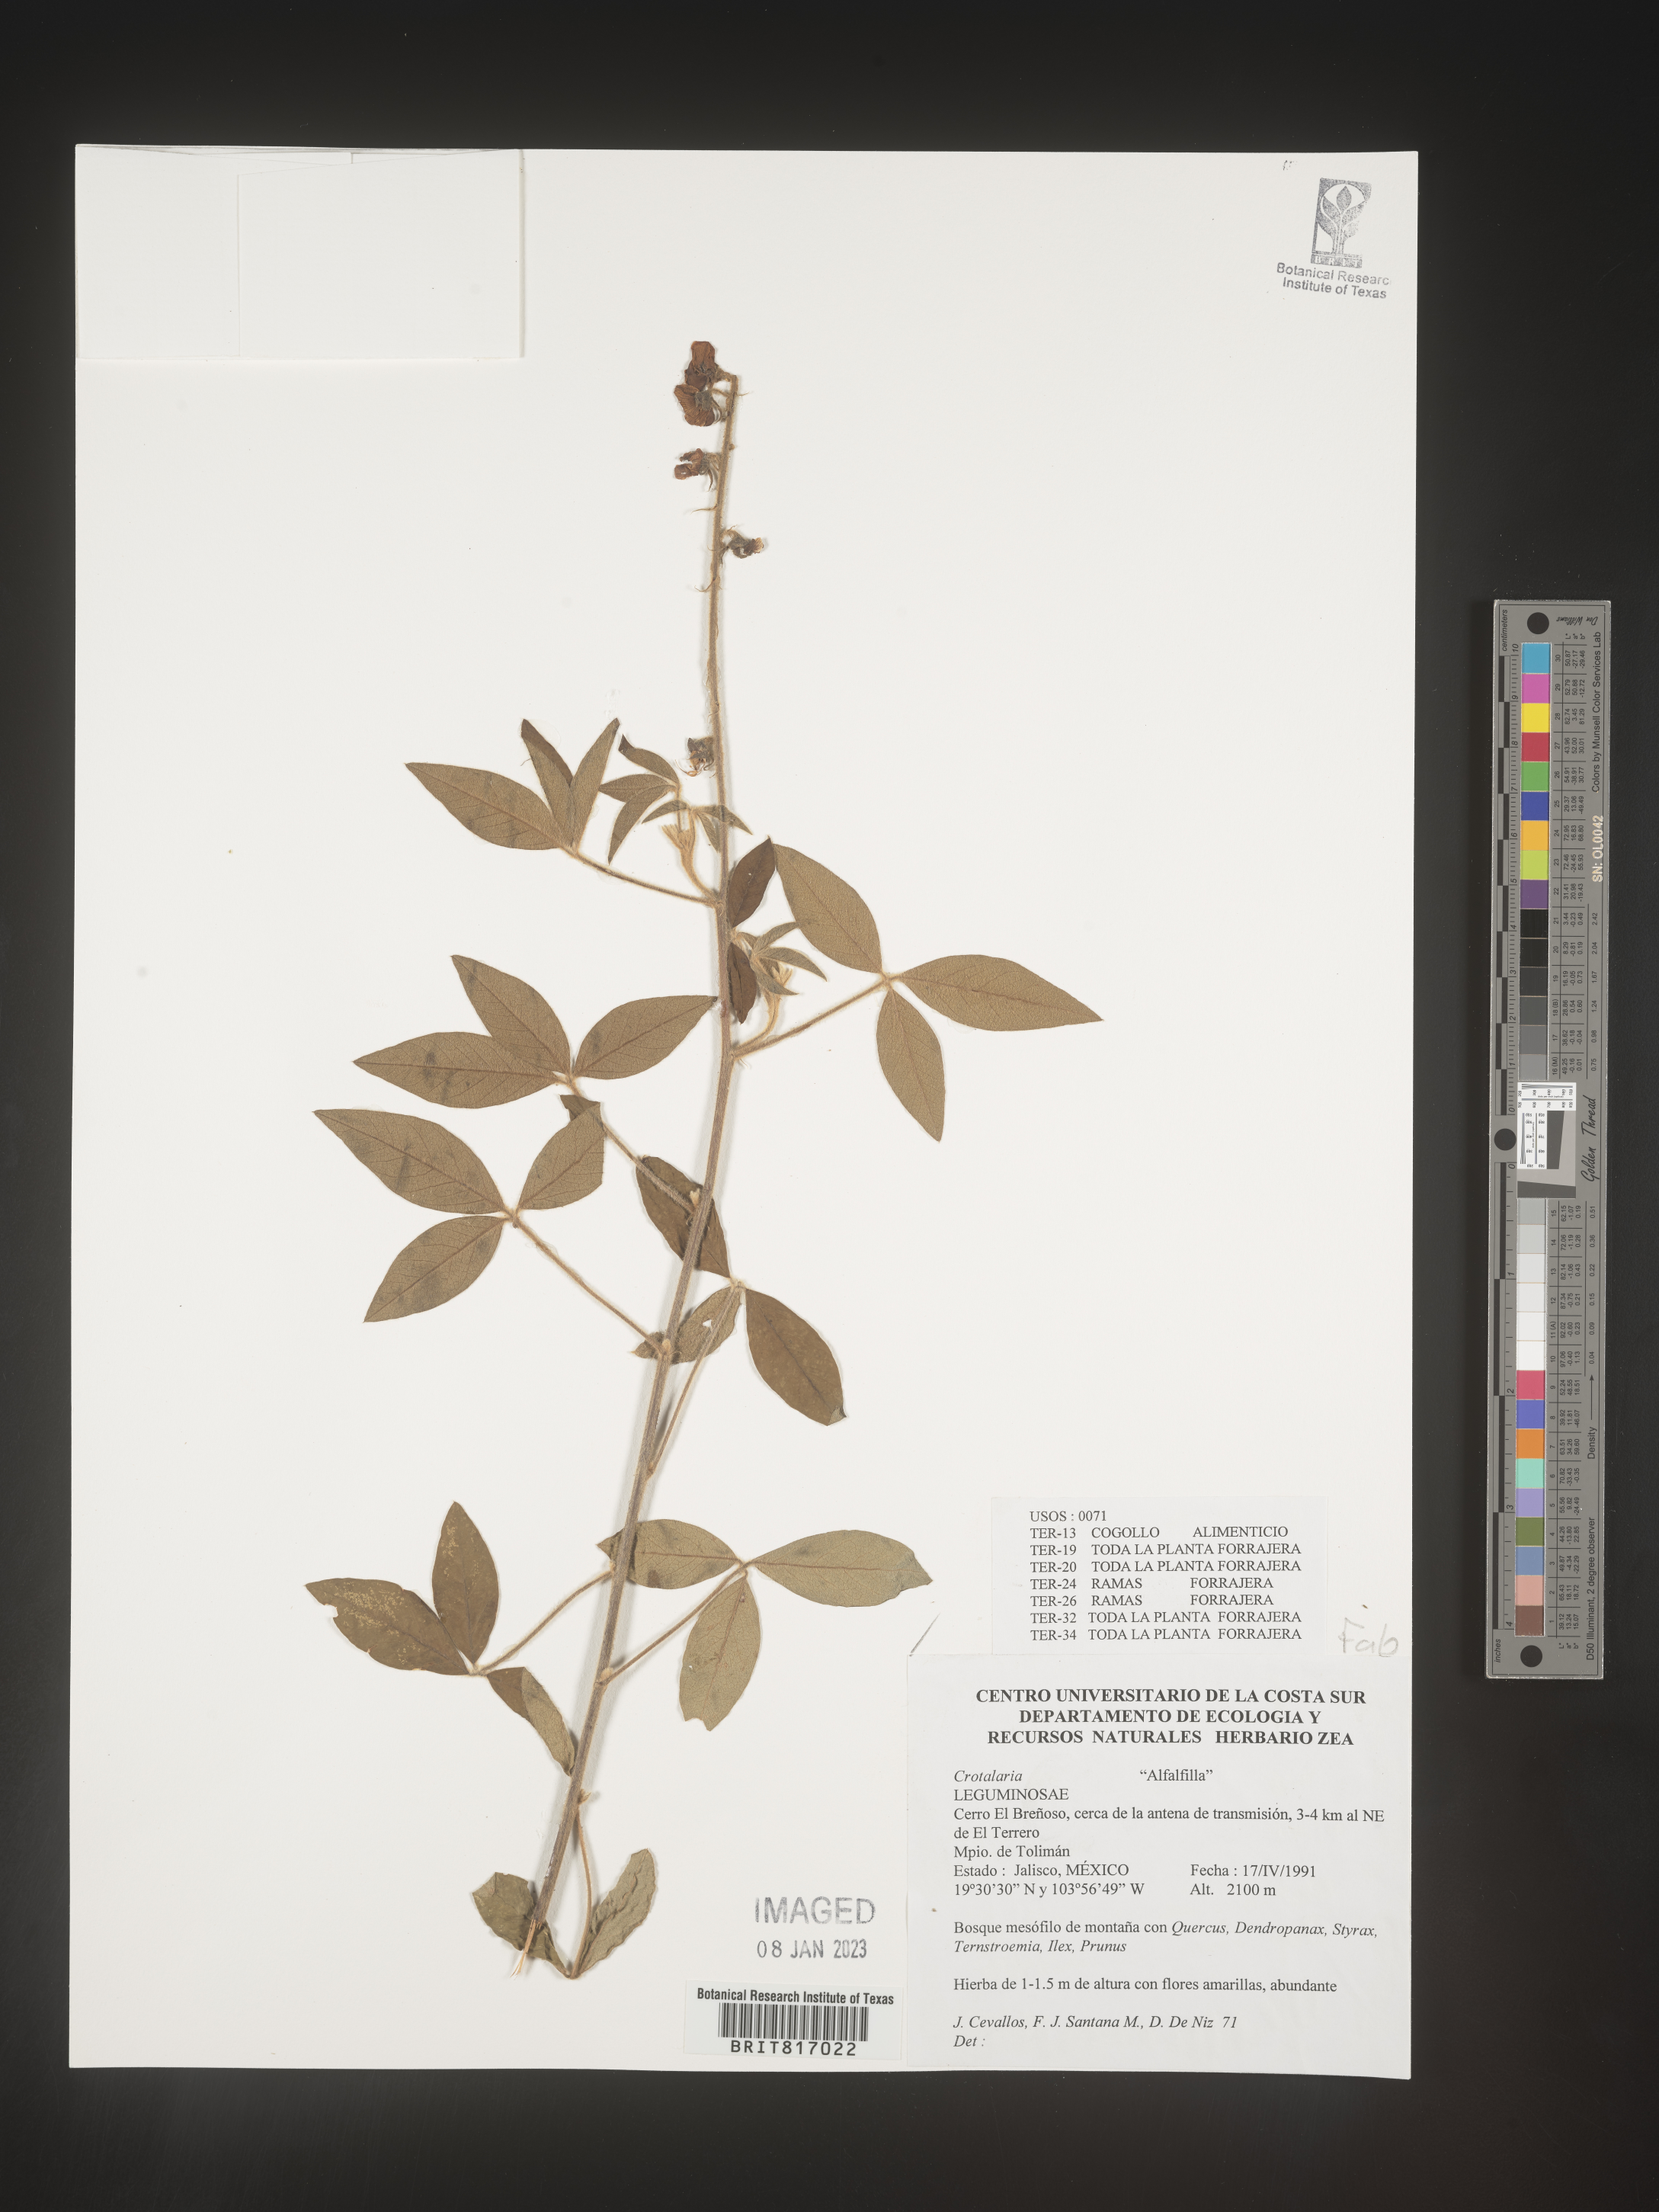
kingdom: Plantae
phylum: Tracheophyta
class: Magnoliopsida
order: Fabales
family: Fabaceae
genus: Crotalaria
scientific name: Crotalaria
